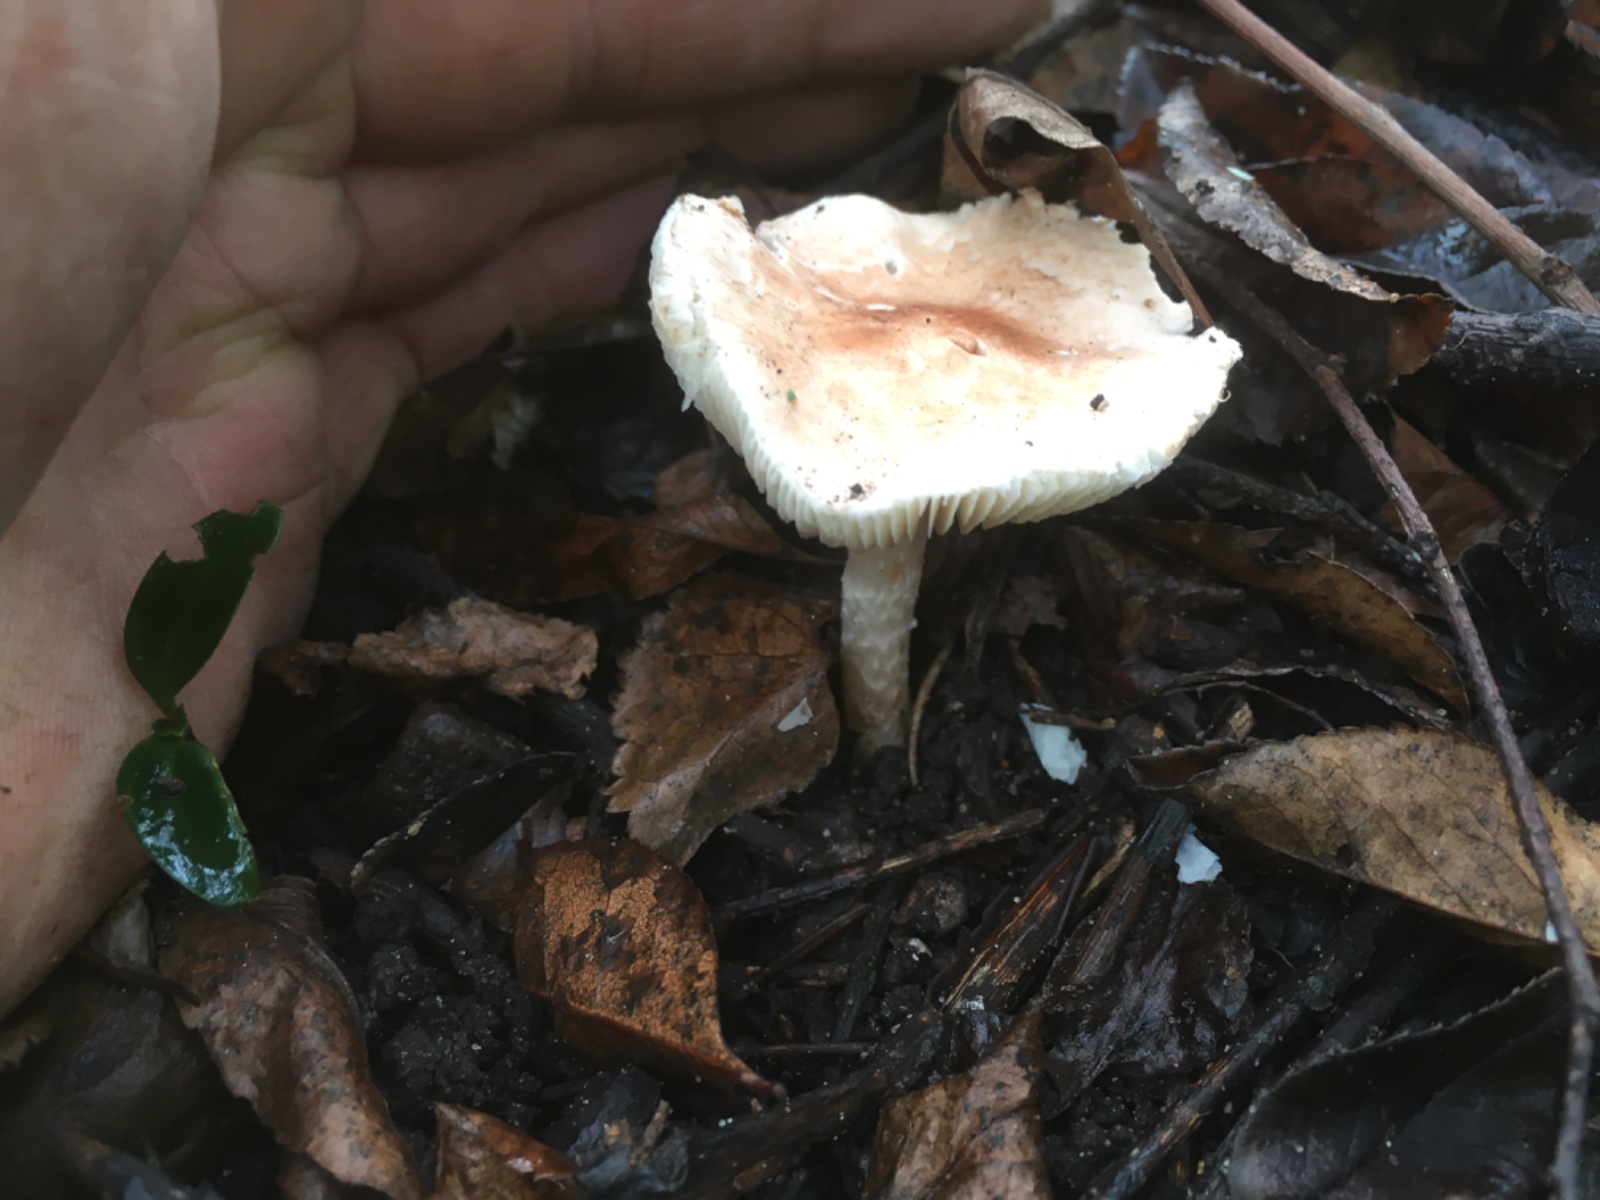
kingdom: Fungi
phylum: Basidiomycota
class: Agaricomycetes
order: Agaricales
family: Agaricaceae
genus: Lepiota
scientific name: Lepiota subincarnata
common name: kødfarvet parasolhat
